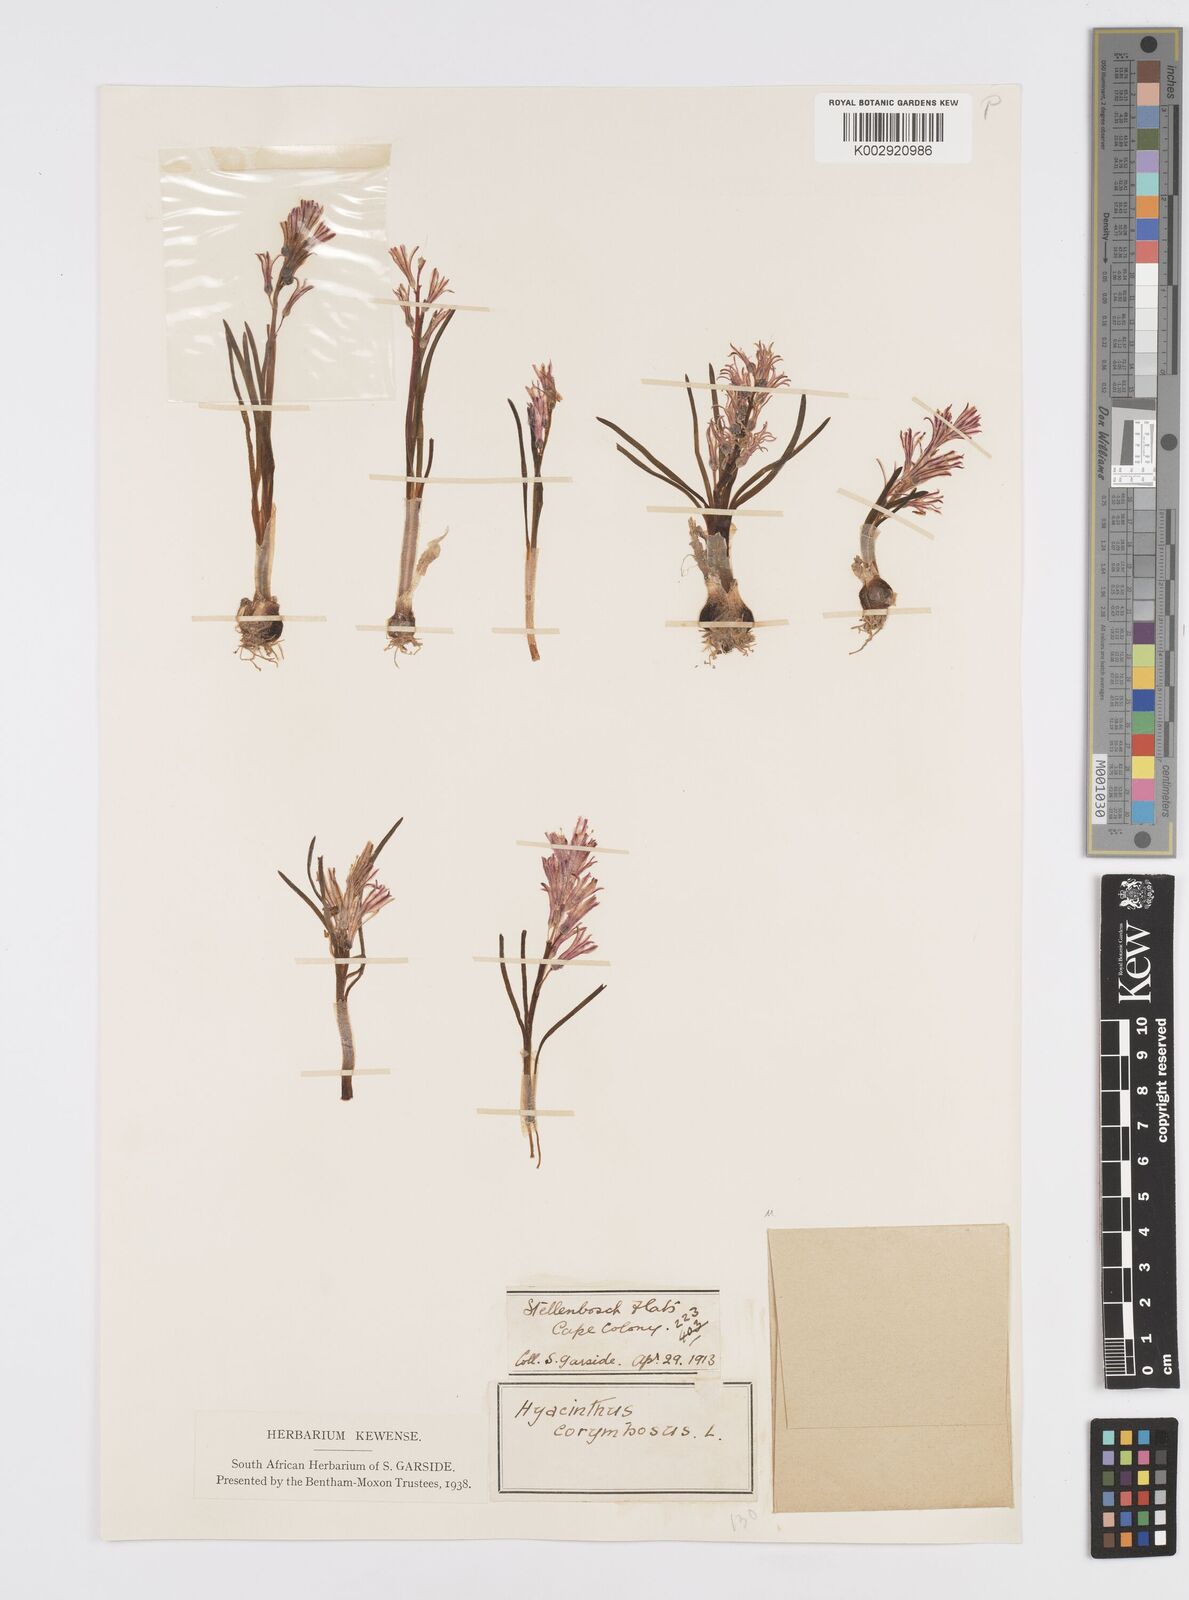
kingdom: Plantae
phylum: Tracheophyta
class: Liliopsida
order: Asparagales
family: Asparagaceae
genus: Lachenalia
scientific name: Lachenalia corymbosa
